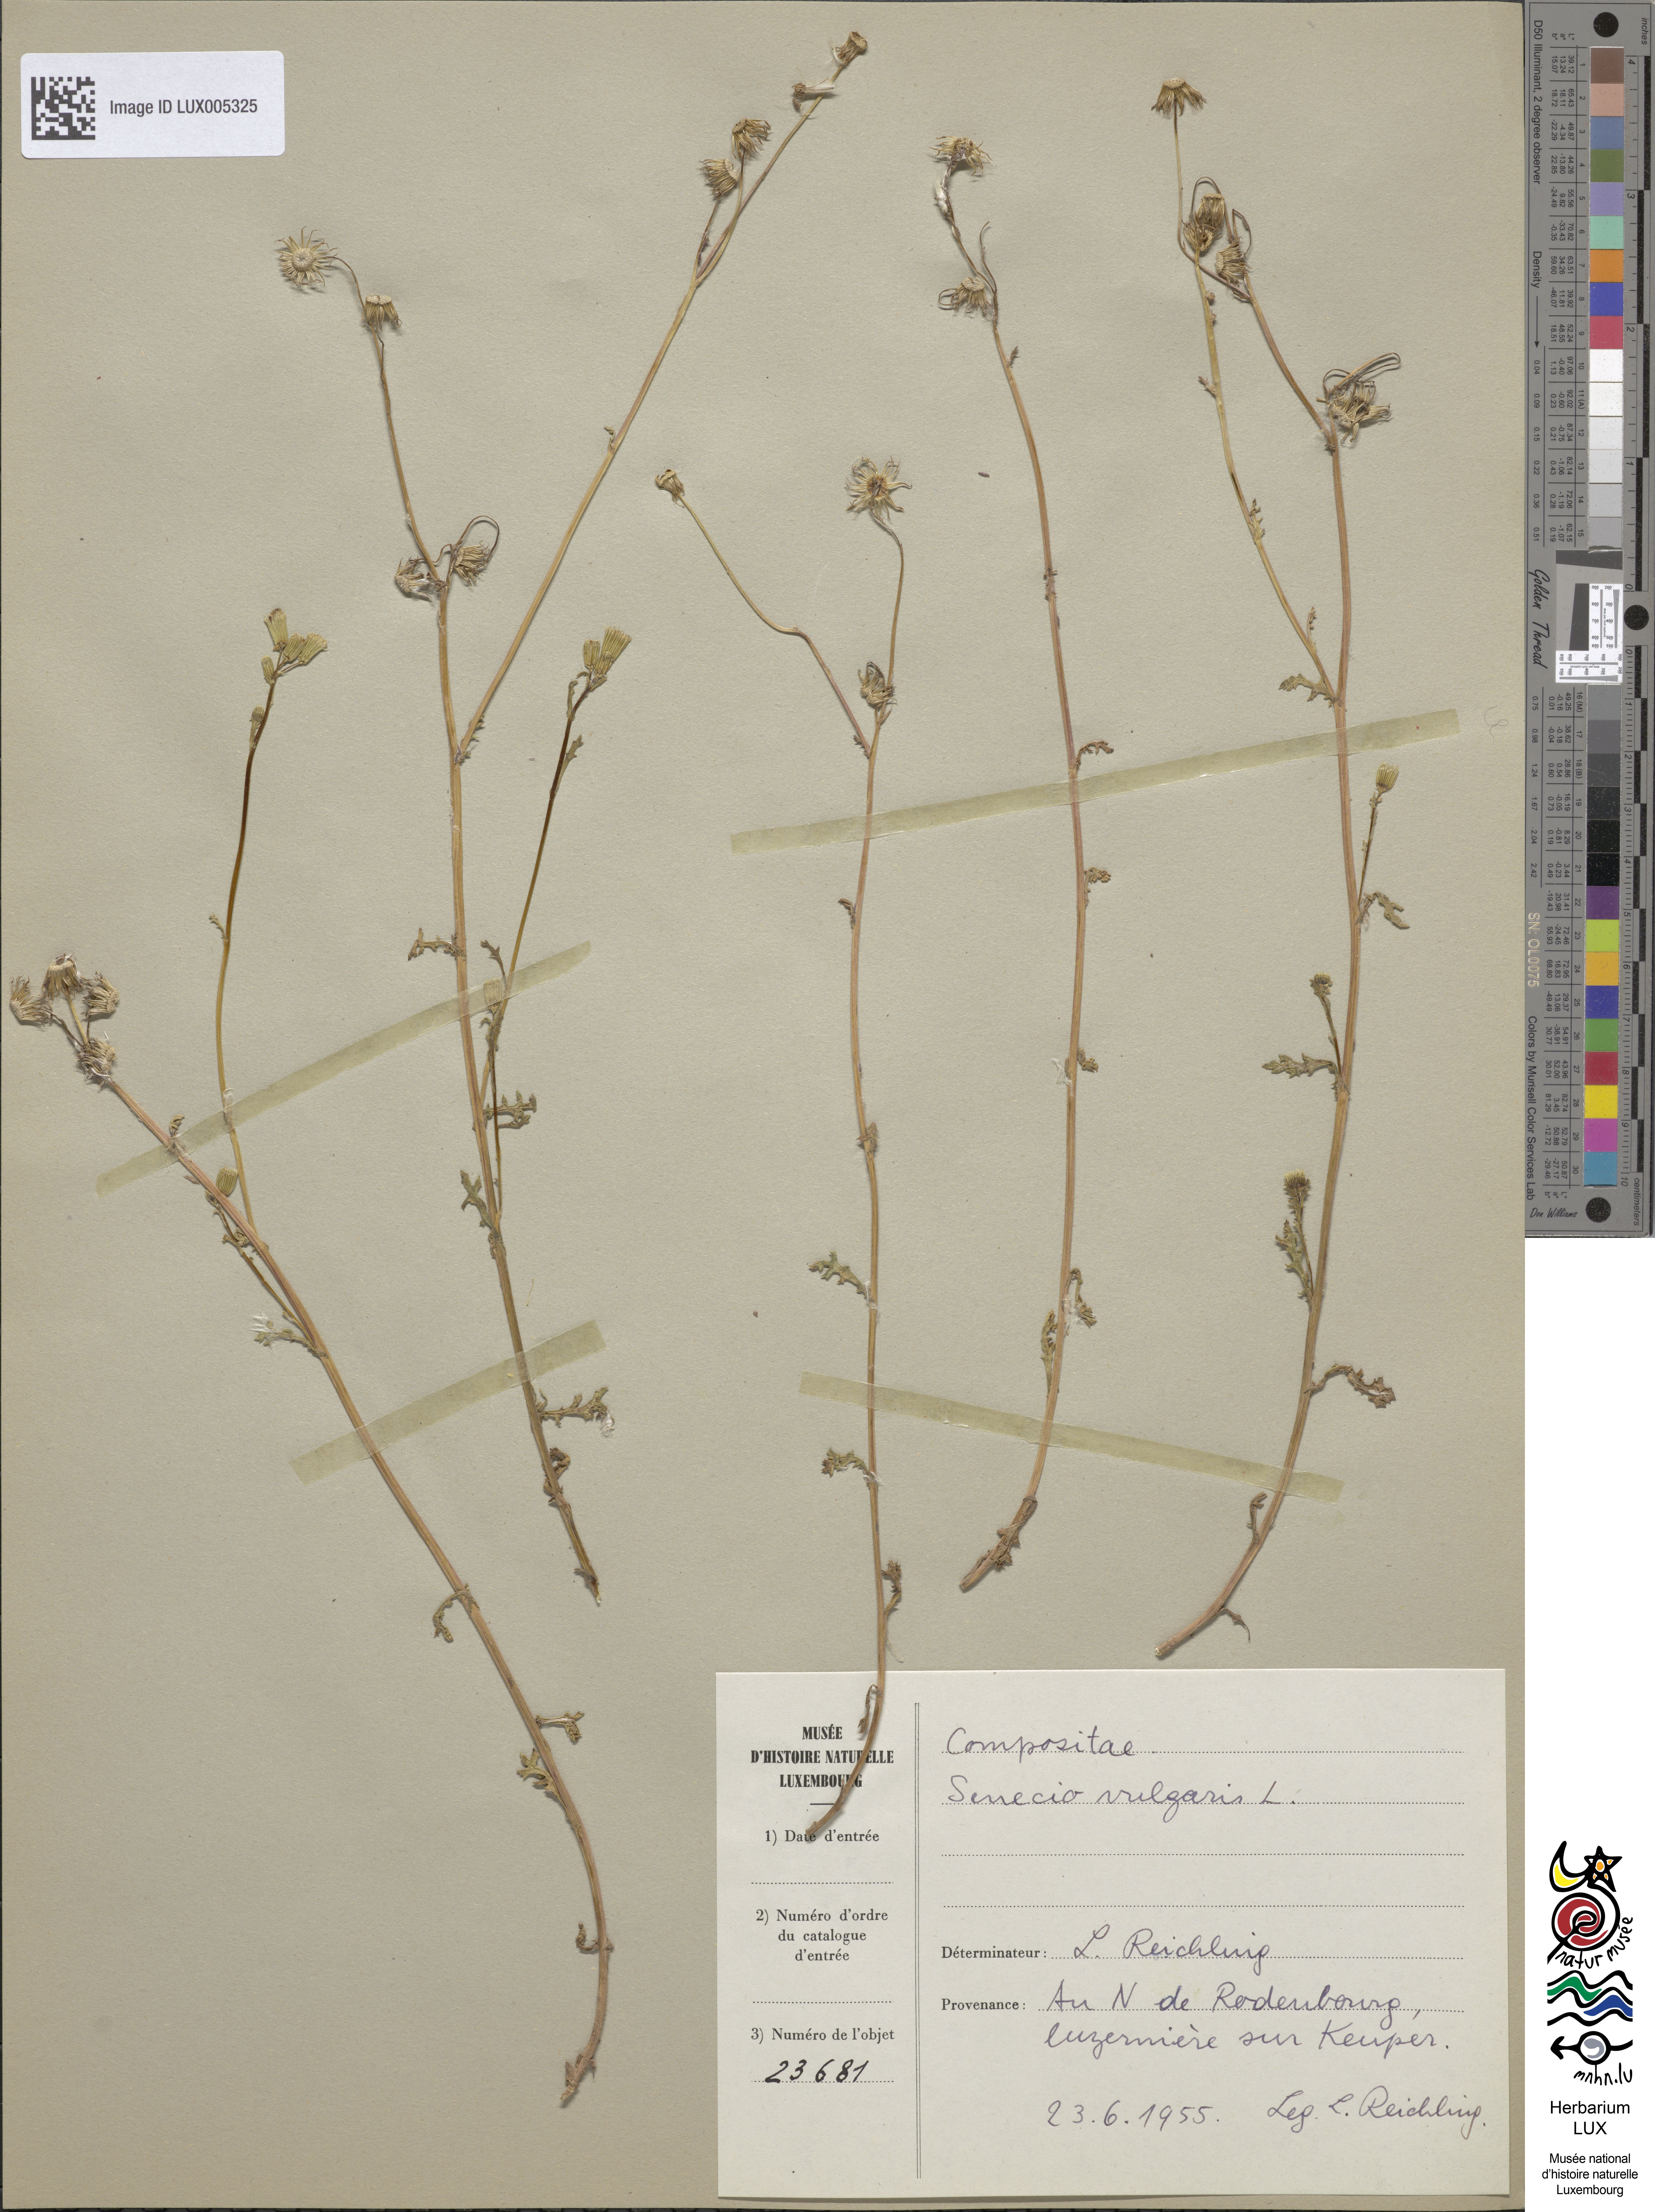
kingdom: Plantae
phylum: Tracheophyta
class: Magnoliopsida
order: Asterales
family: Asteraceae
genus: Senecio
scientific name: Senecio vulgaris
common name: Old-man-in-the-spring
